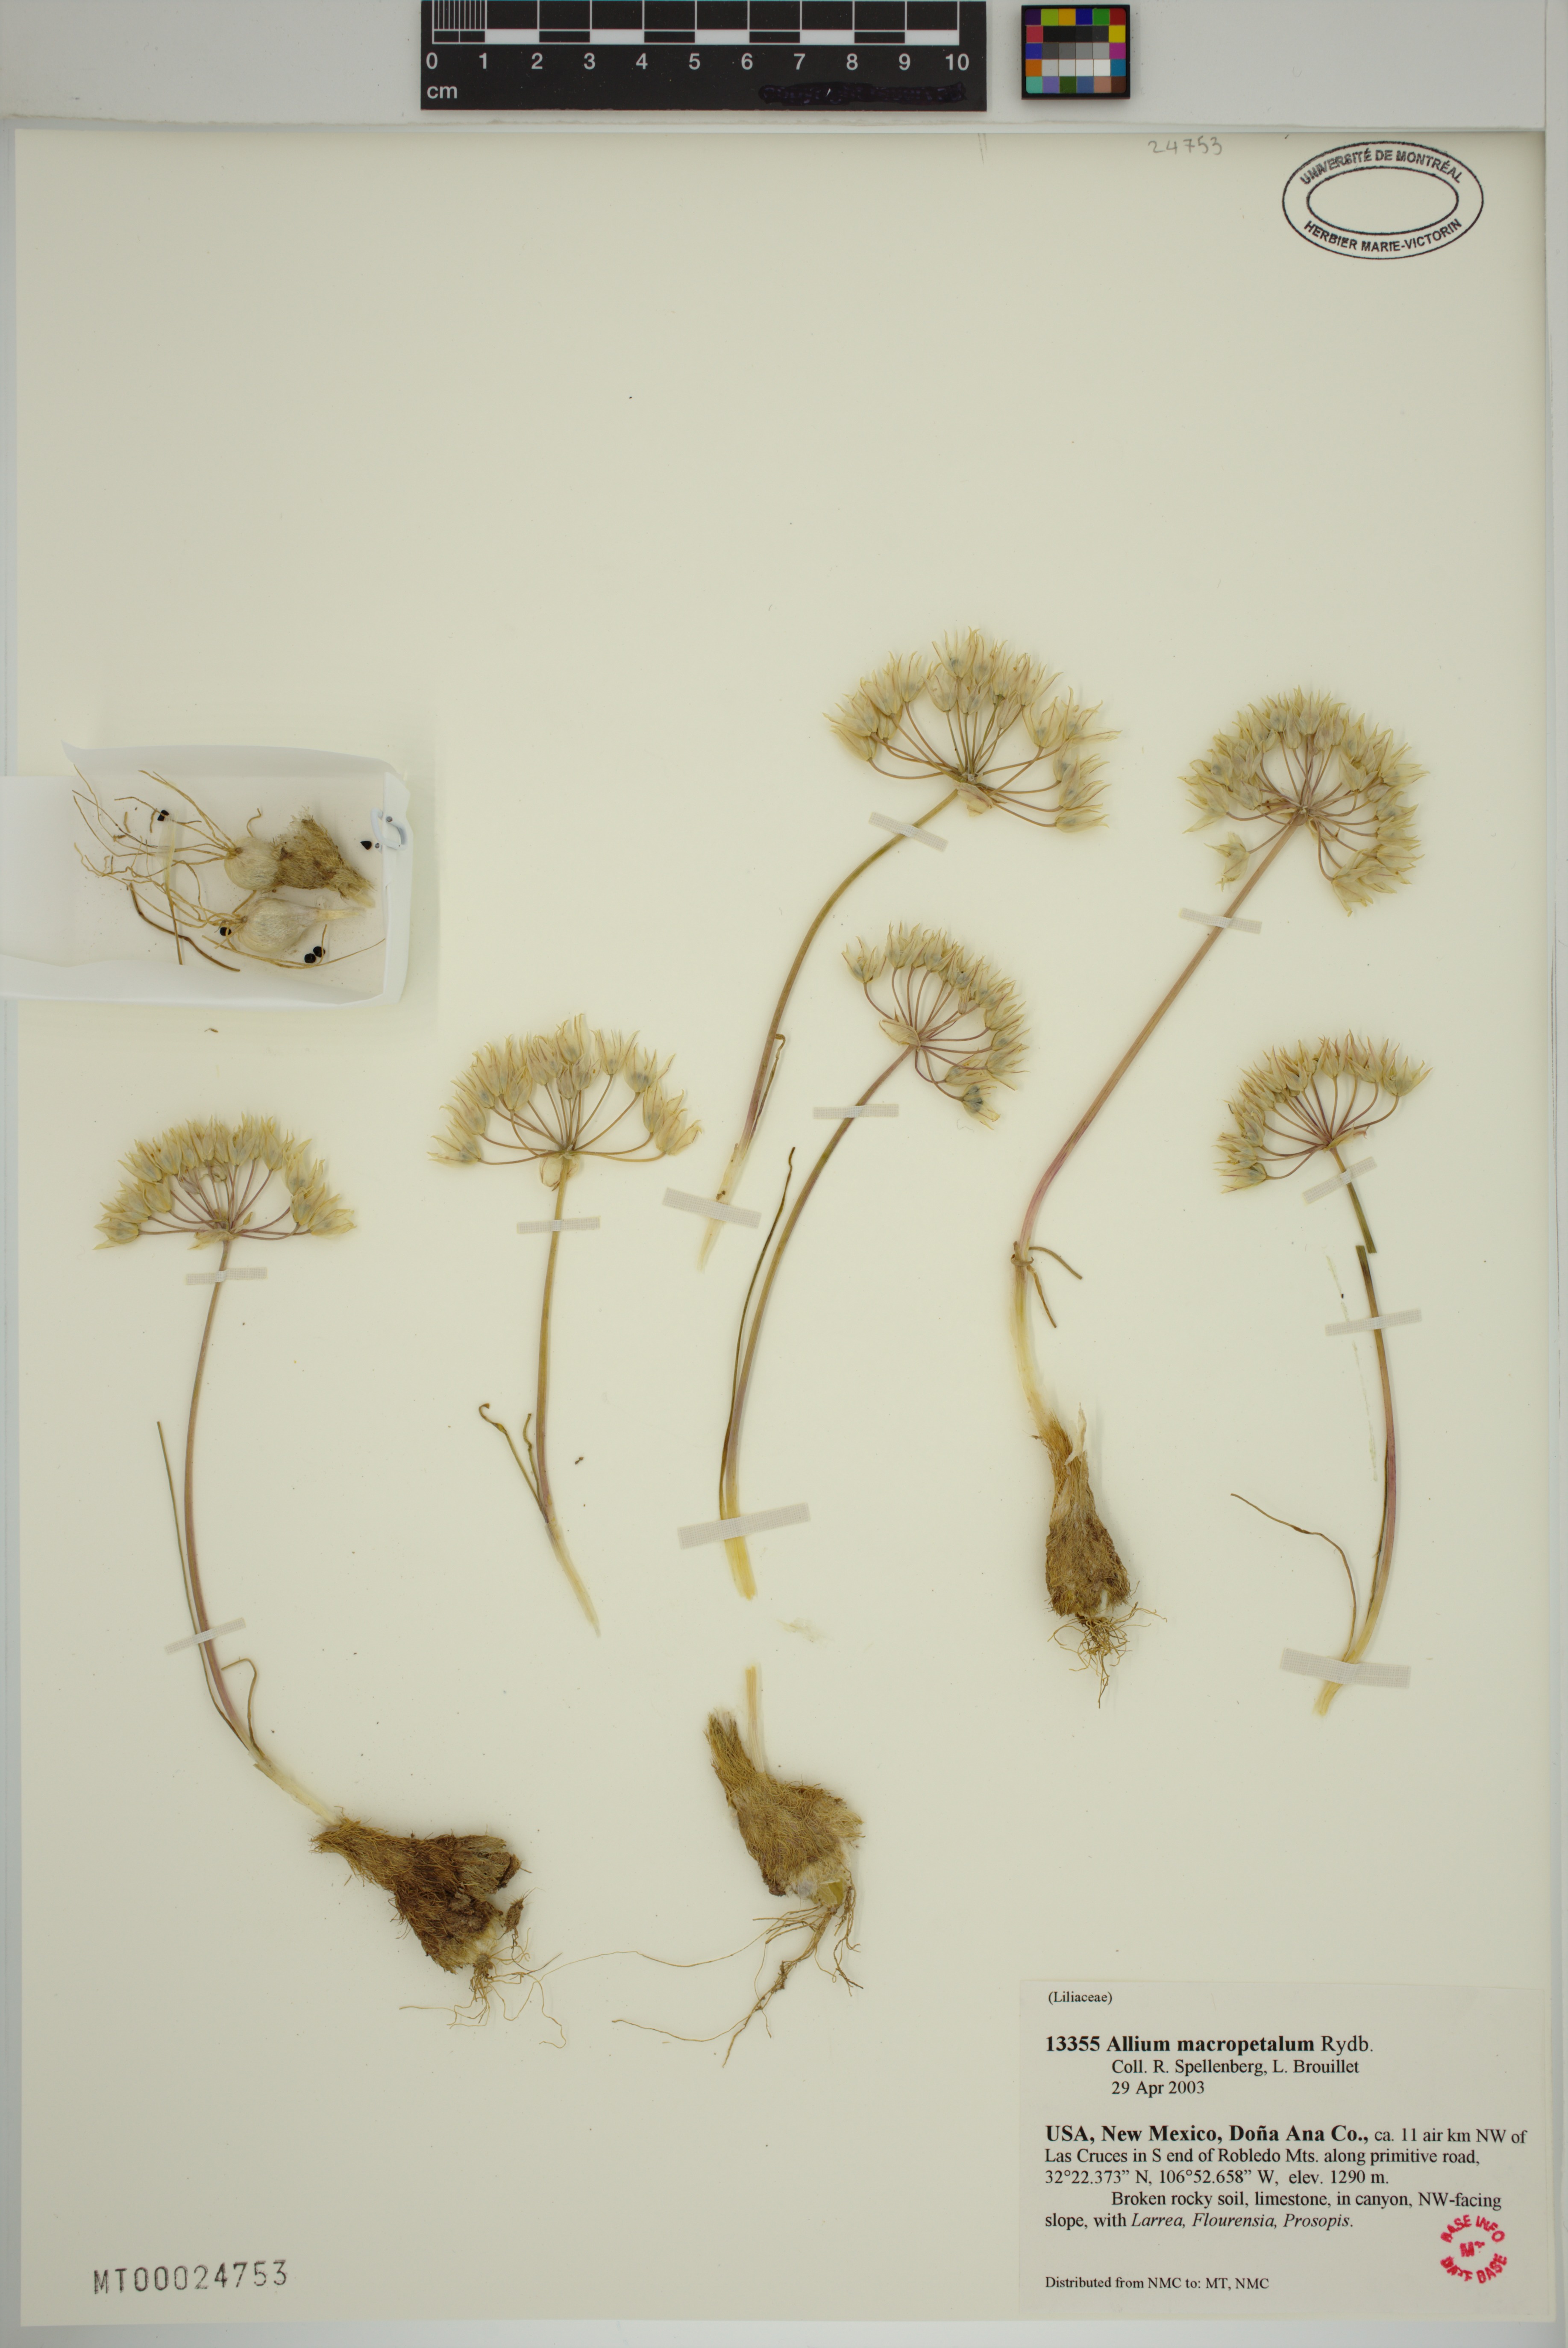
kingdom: Plantae
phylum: Tracheophyta
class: Liliopsida
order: Asparagales
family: Amaryllidaceae
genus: Allium
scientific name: Allium macropetalum
